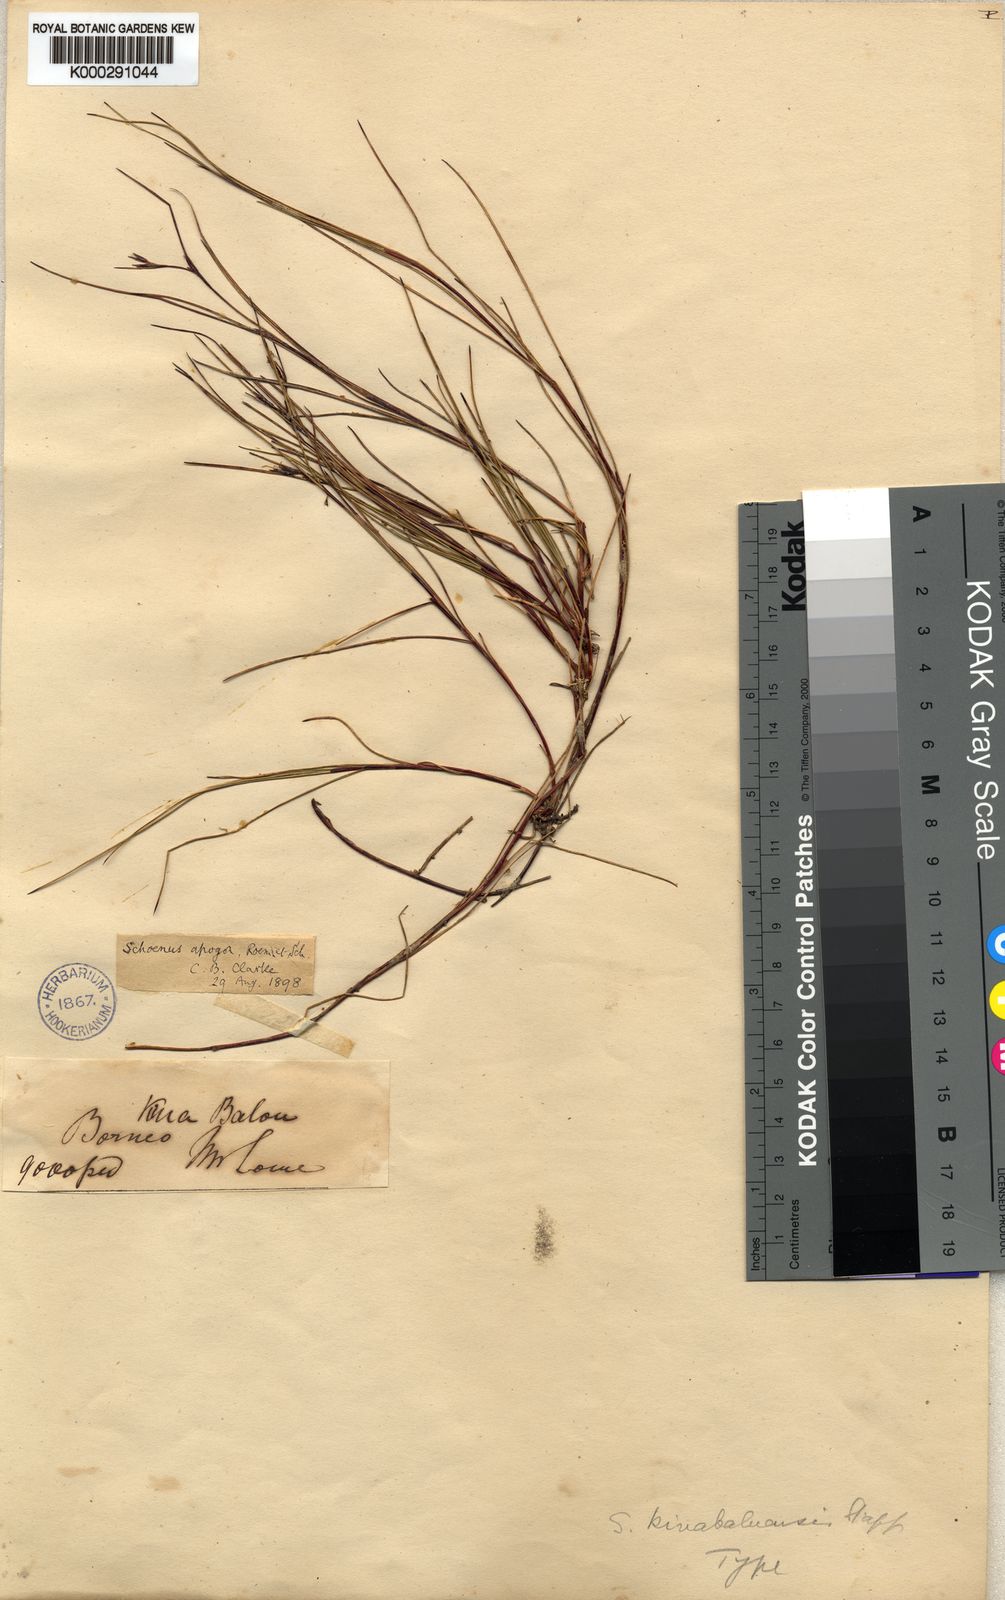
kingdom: Plantae
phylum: Tracheophyta
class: Liliopsida
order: Poales
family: Cyperaceae
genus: Schoenus
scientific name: Schoenus curvulus
